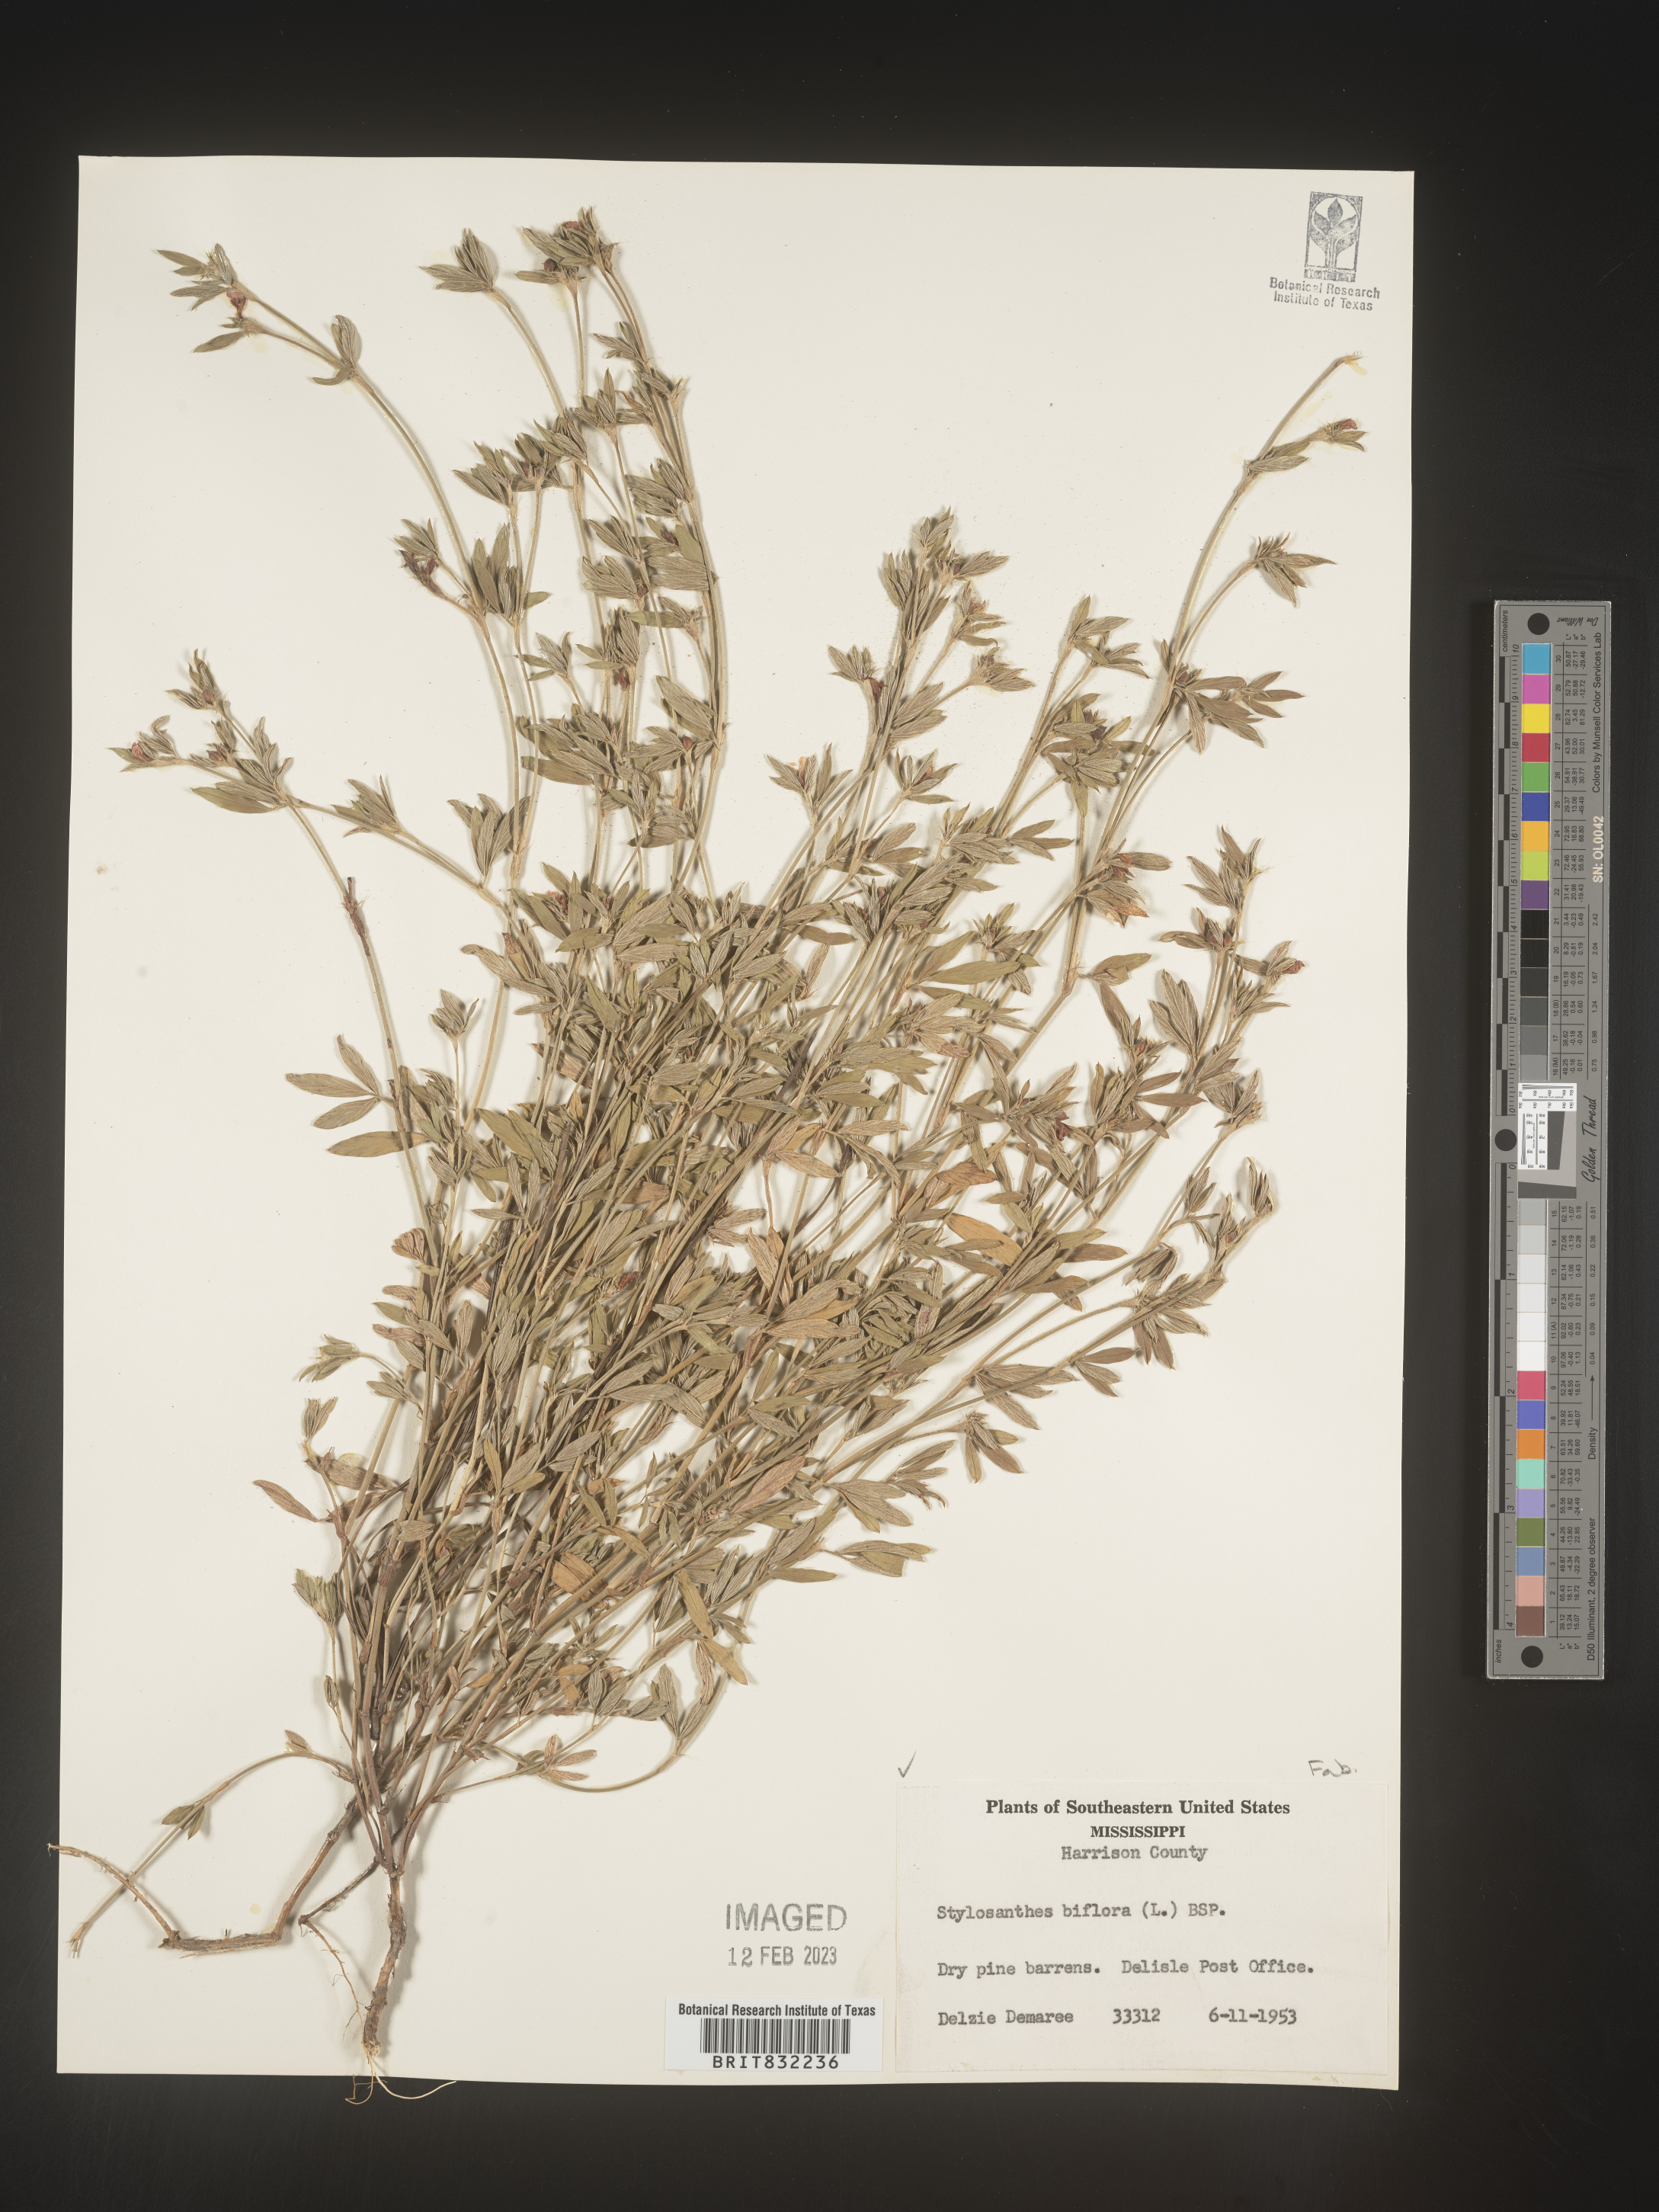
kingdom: Plantae
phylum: Tracheophyta
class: Magnoliopsida
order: Fabales
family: Fabaceae
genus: Stylosanthes
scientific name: Stylosanthes biflora
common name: Two-flower pencil-flower
